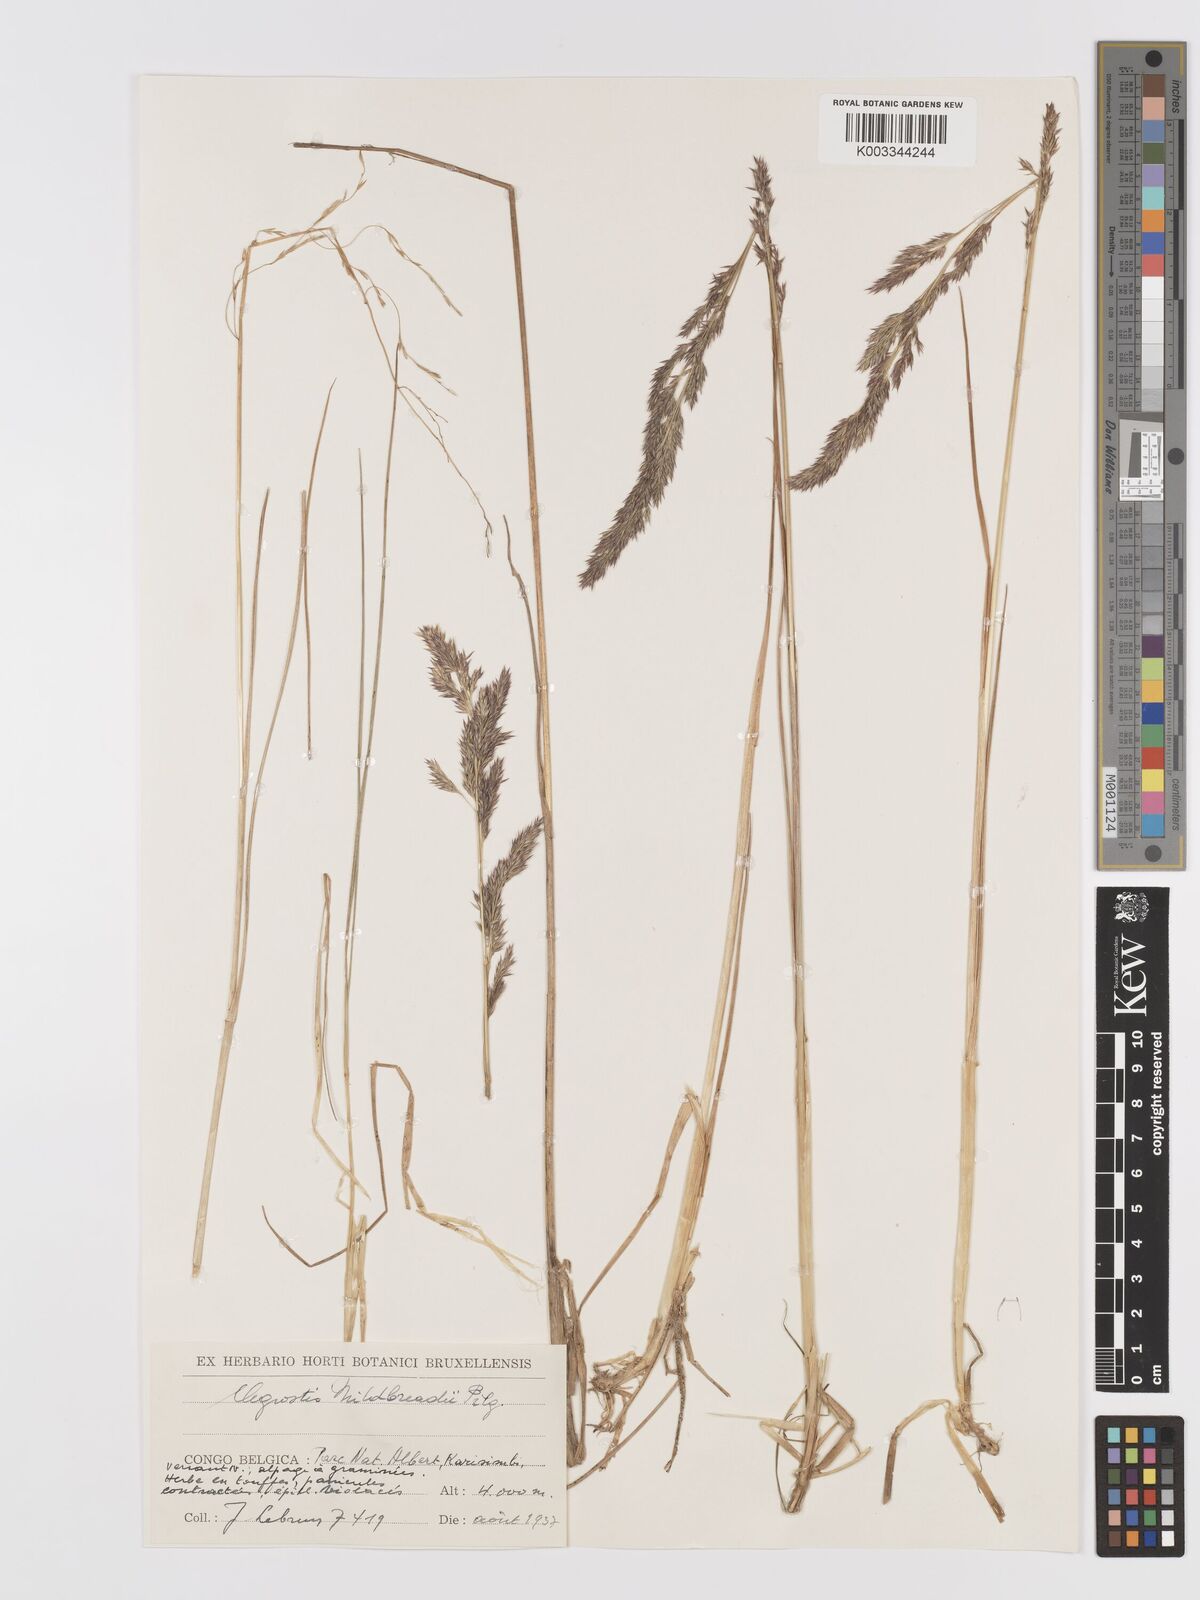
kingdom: Plantae
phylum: Tracheophyta
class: Liliopsida
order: Poales
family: Poaceae
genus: Agrostis
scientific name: Agrostis quinqueseta
